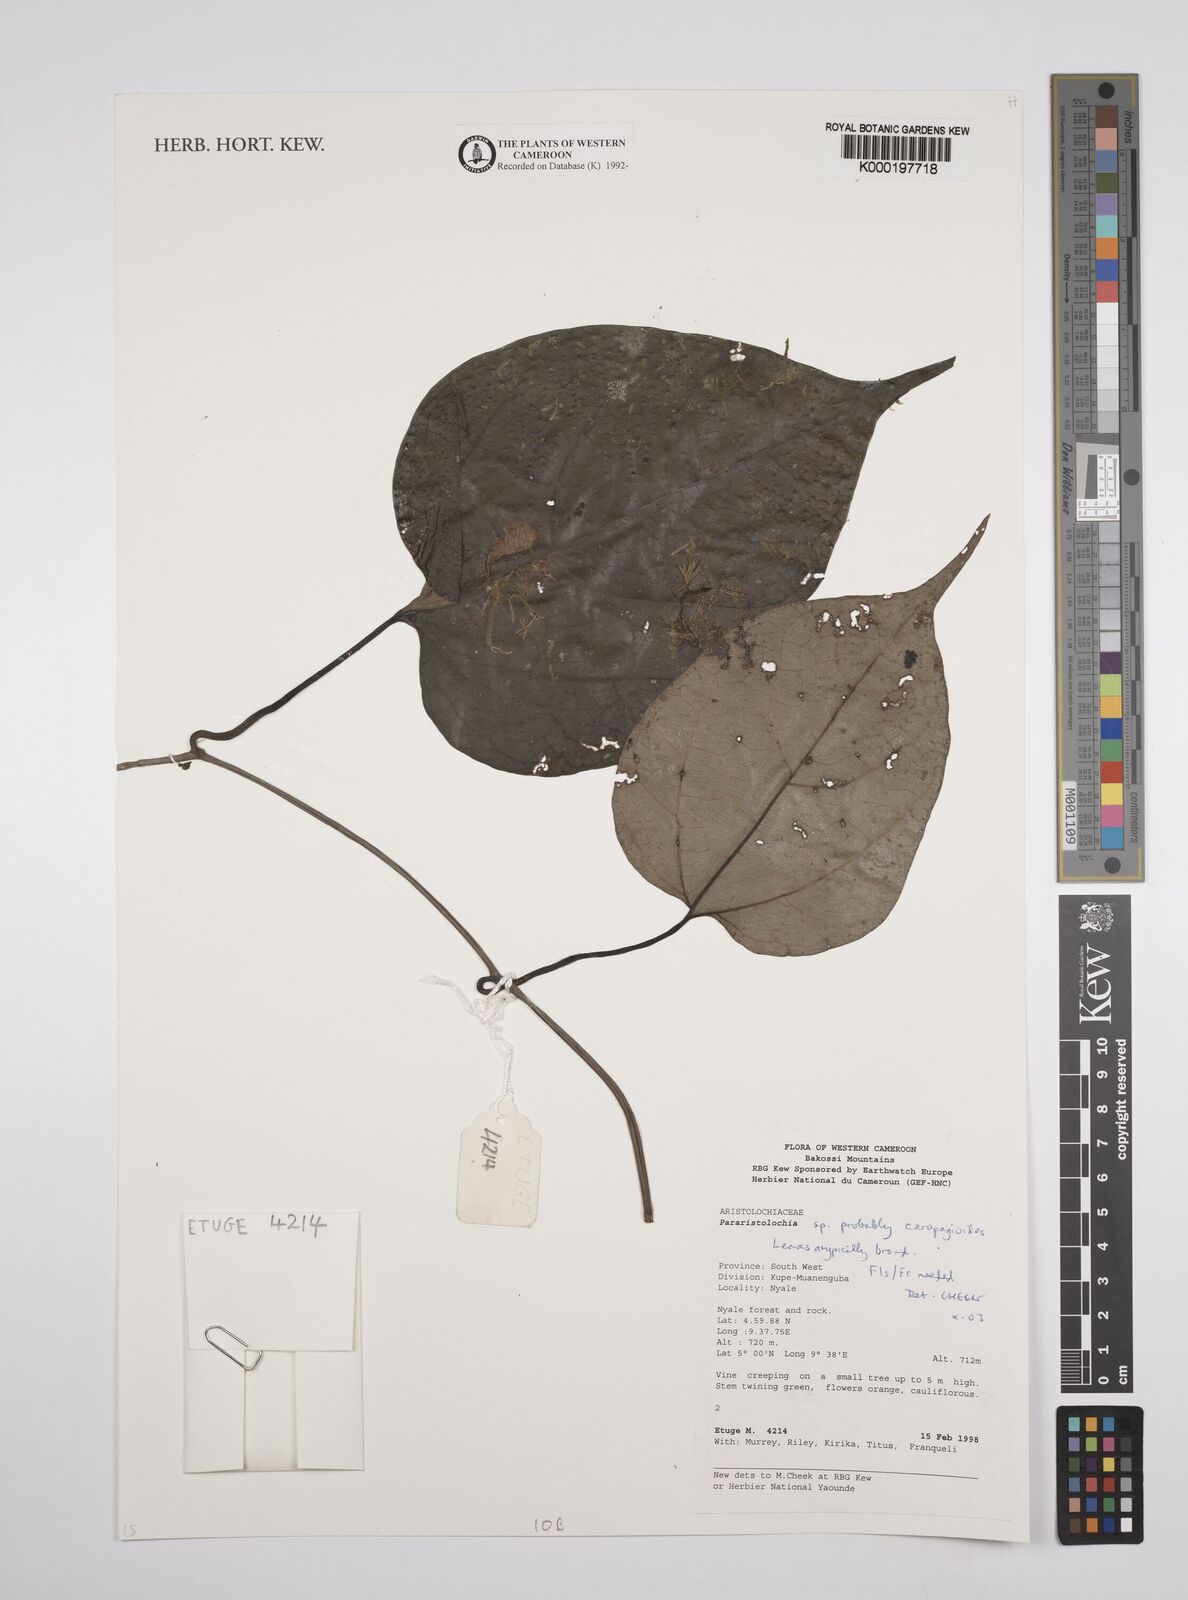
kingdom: Plantae
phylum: Tracheophyta
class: Magnoliopsida
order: Piperales
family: Aristolochiaceae
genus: Aristolochia
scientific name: Aristolochia ceropegioides
